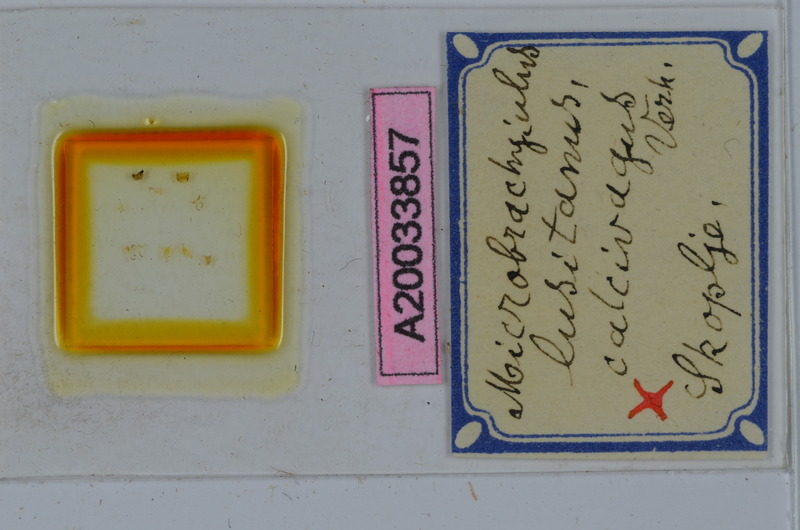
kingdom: Animalia
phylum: Arthropoda
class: Diplopoda
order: Julida
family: Julidae
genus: Brachyiulus
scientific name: Brachyiulus lusitanus
